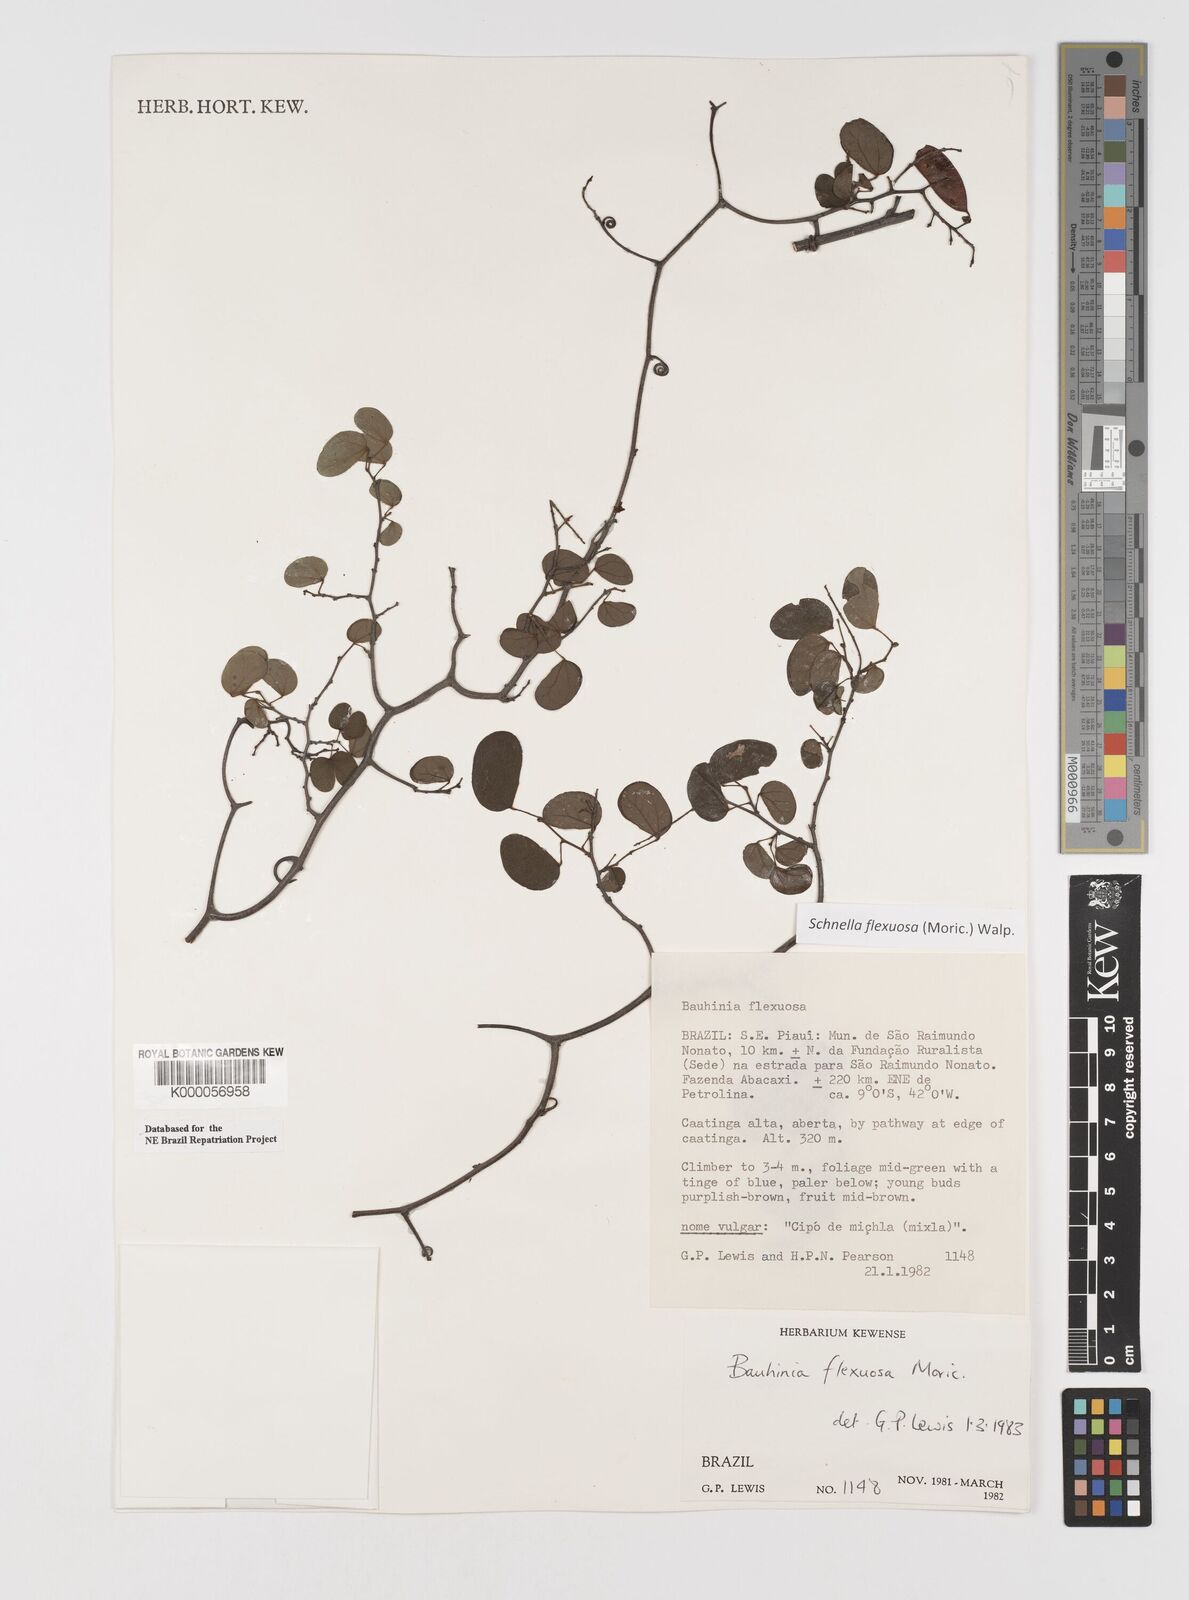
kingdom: Plantae
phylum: Tracheophyta
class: Magnoliopsida
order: Fabales
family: Fabaceae
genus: Schnella
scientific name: Schnella flexuosa
